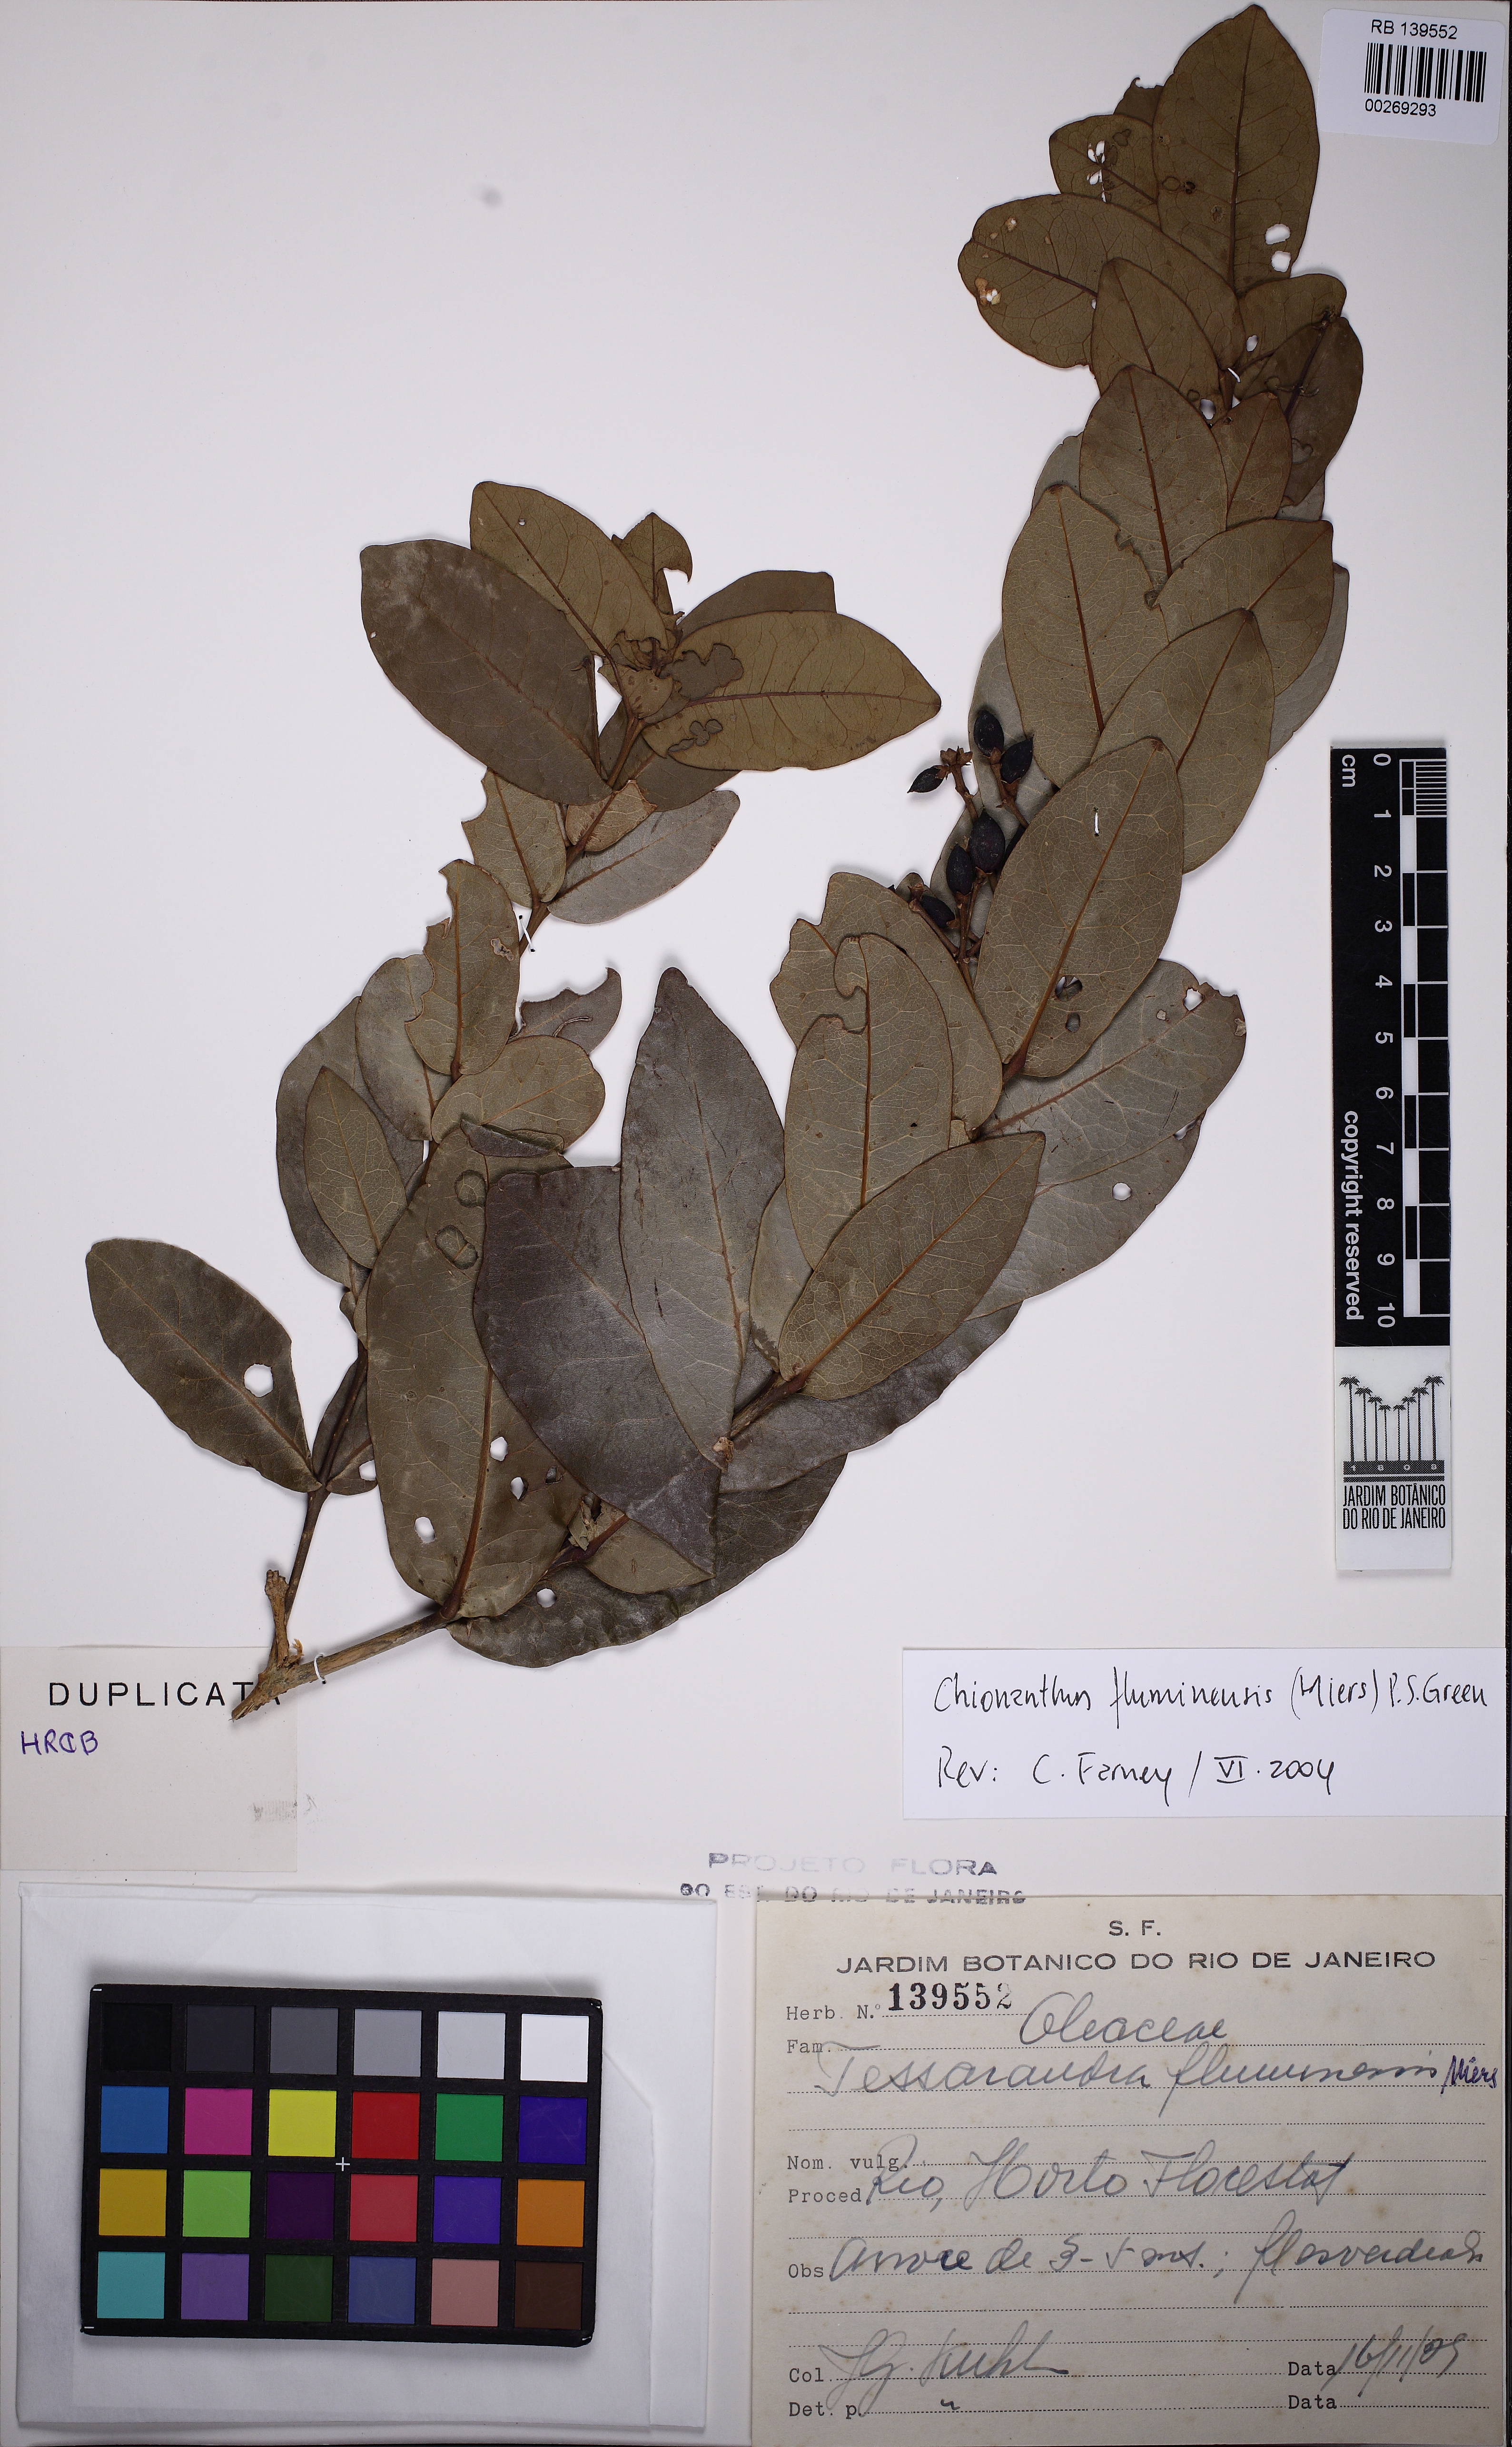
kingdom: Plantae
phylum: Tracheophyta
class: Magnoliopsida
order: Lamiales
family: Oleaceae
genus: Chionanthus
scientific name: Chionanthus fluminensis
